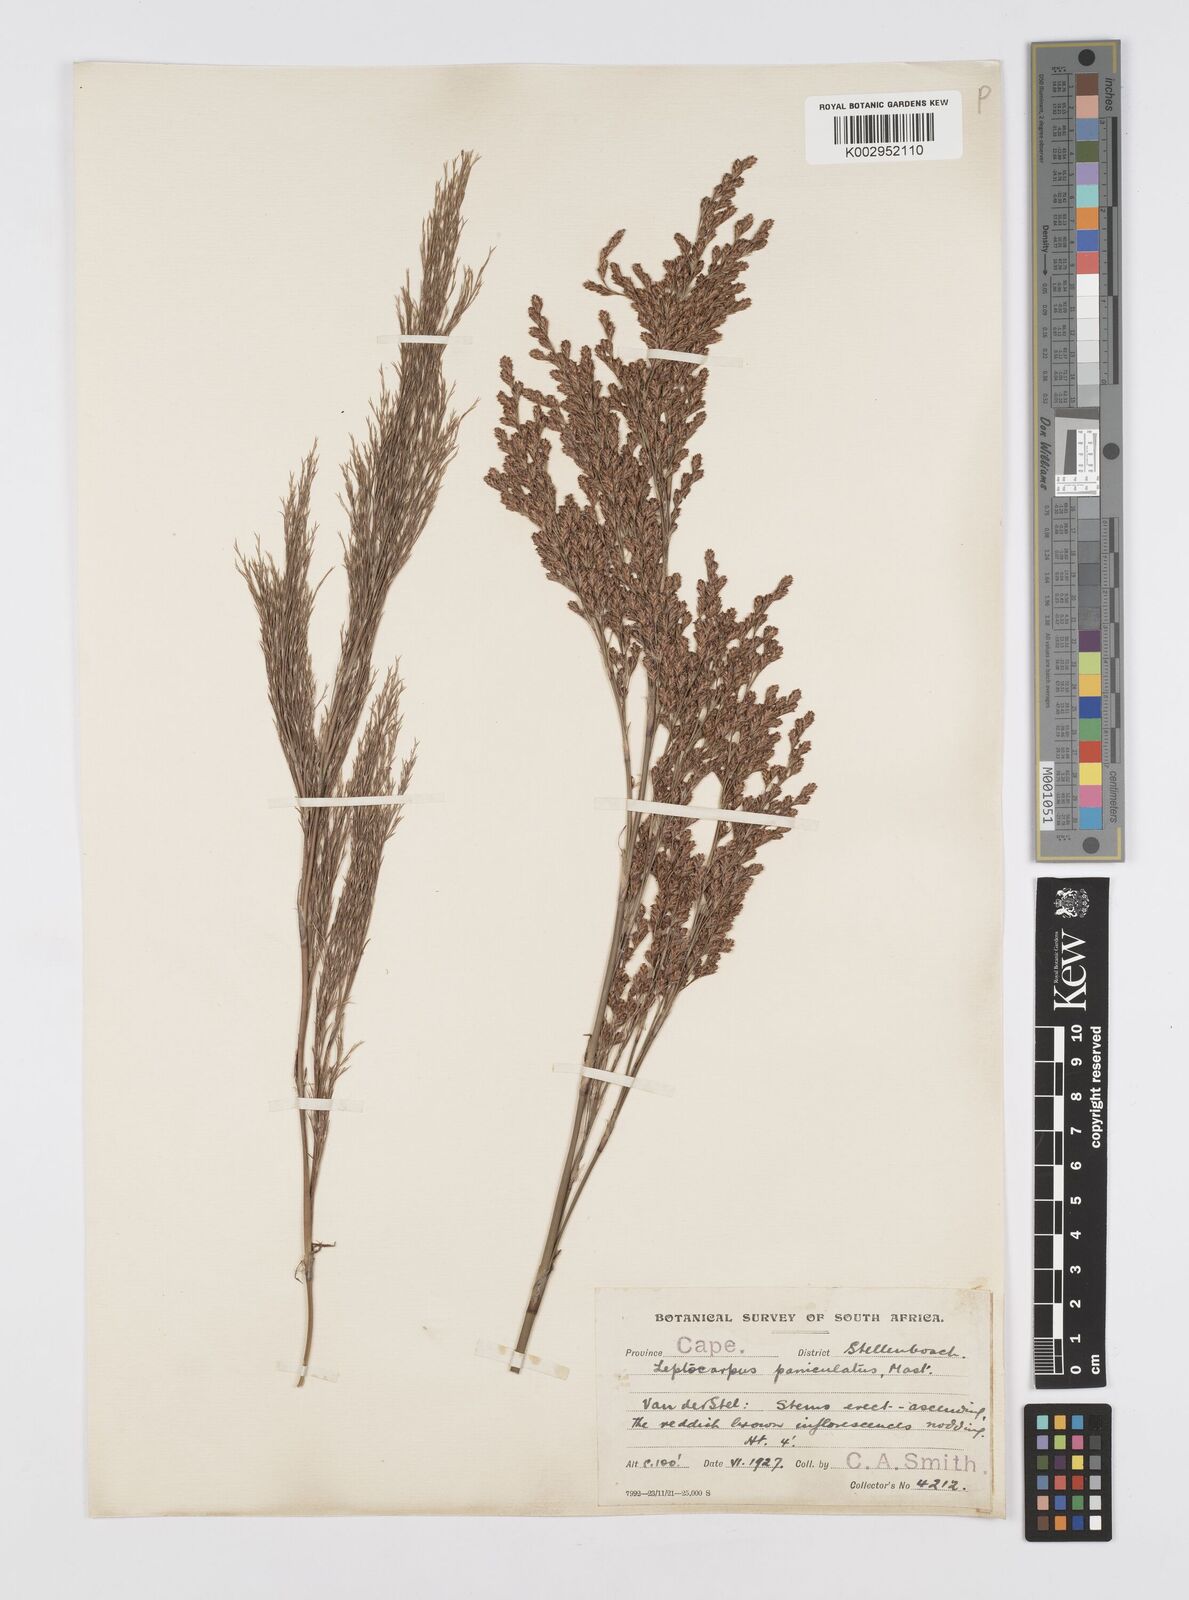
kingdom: Plantae
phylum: Tracheophyta
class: Liliopsida
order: Poales
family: Restionaceae
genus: Restio
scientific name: Restio paniculatus
